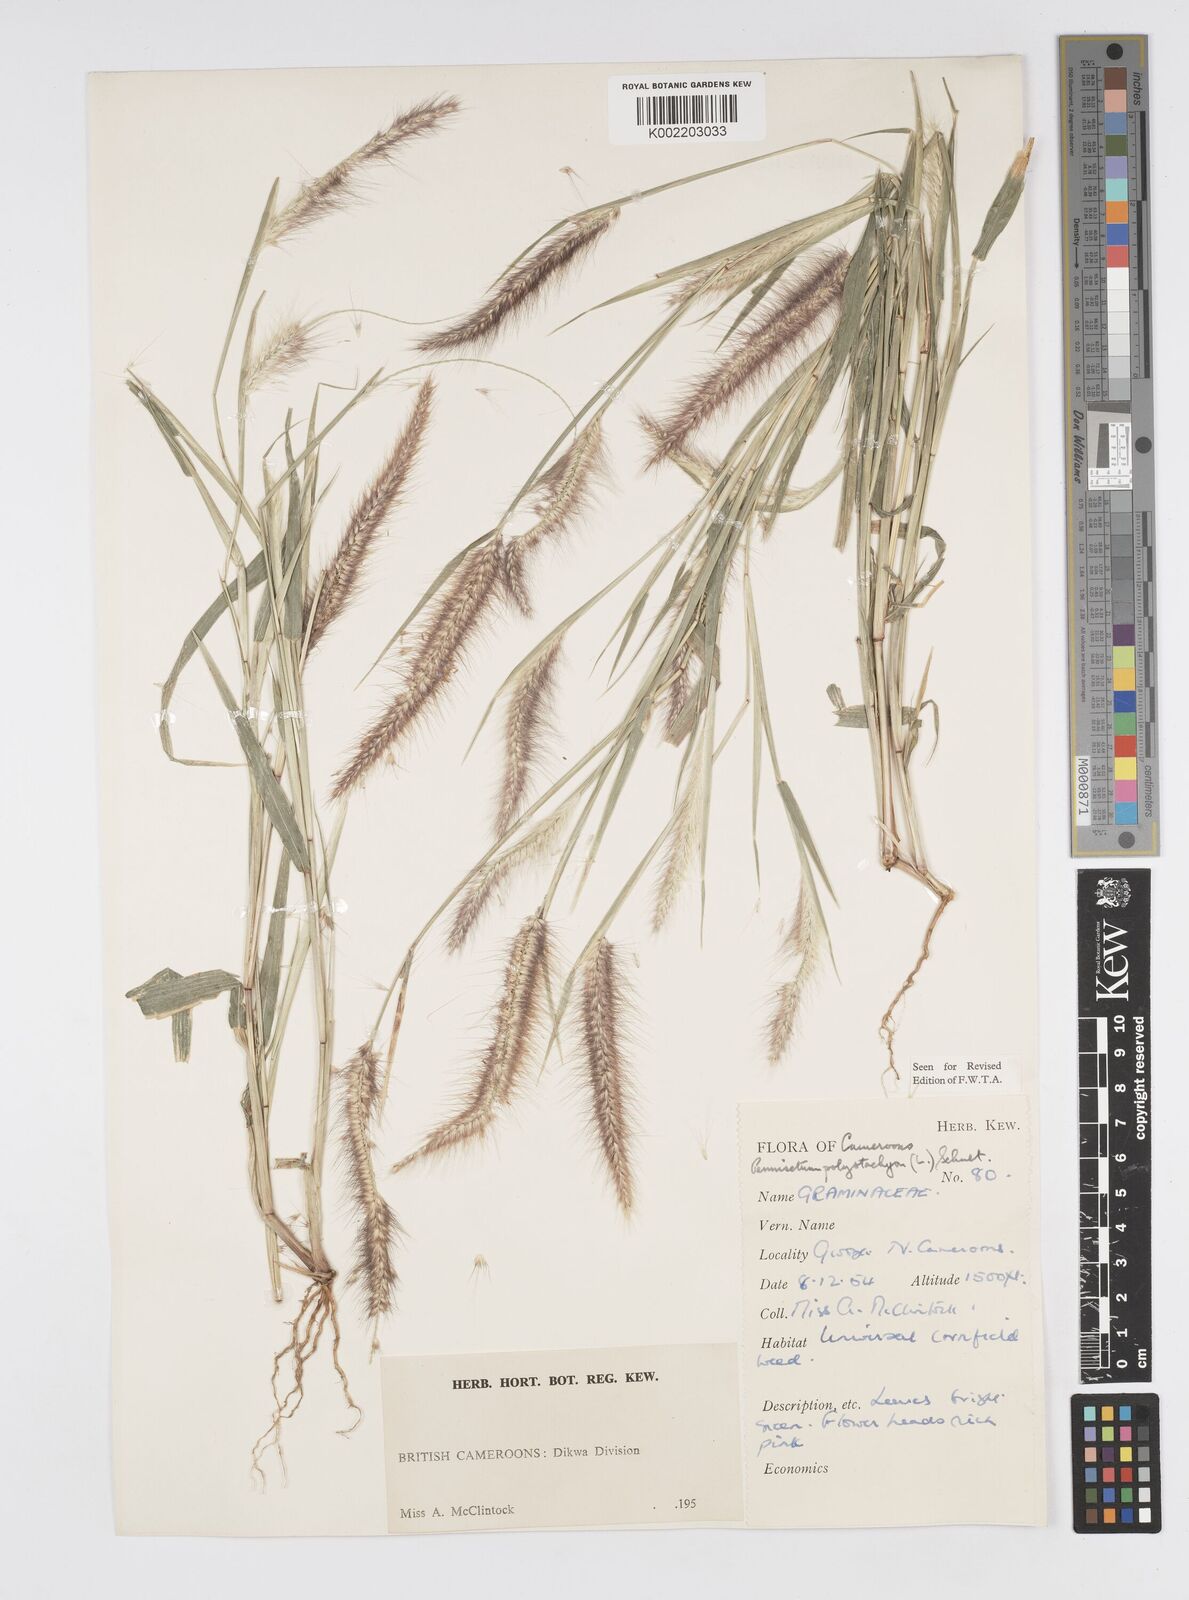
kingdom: Plantae
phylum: Tracheophyta
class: Liliopsida
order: Poales
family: Poaceae
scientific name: Poaceae
